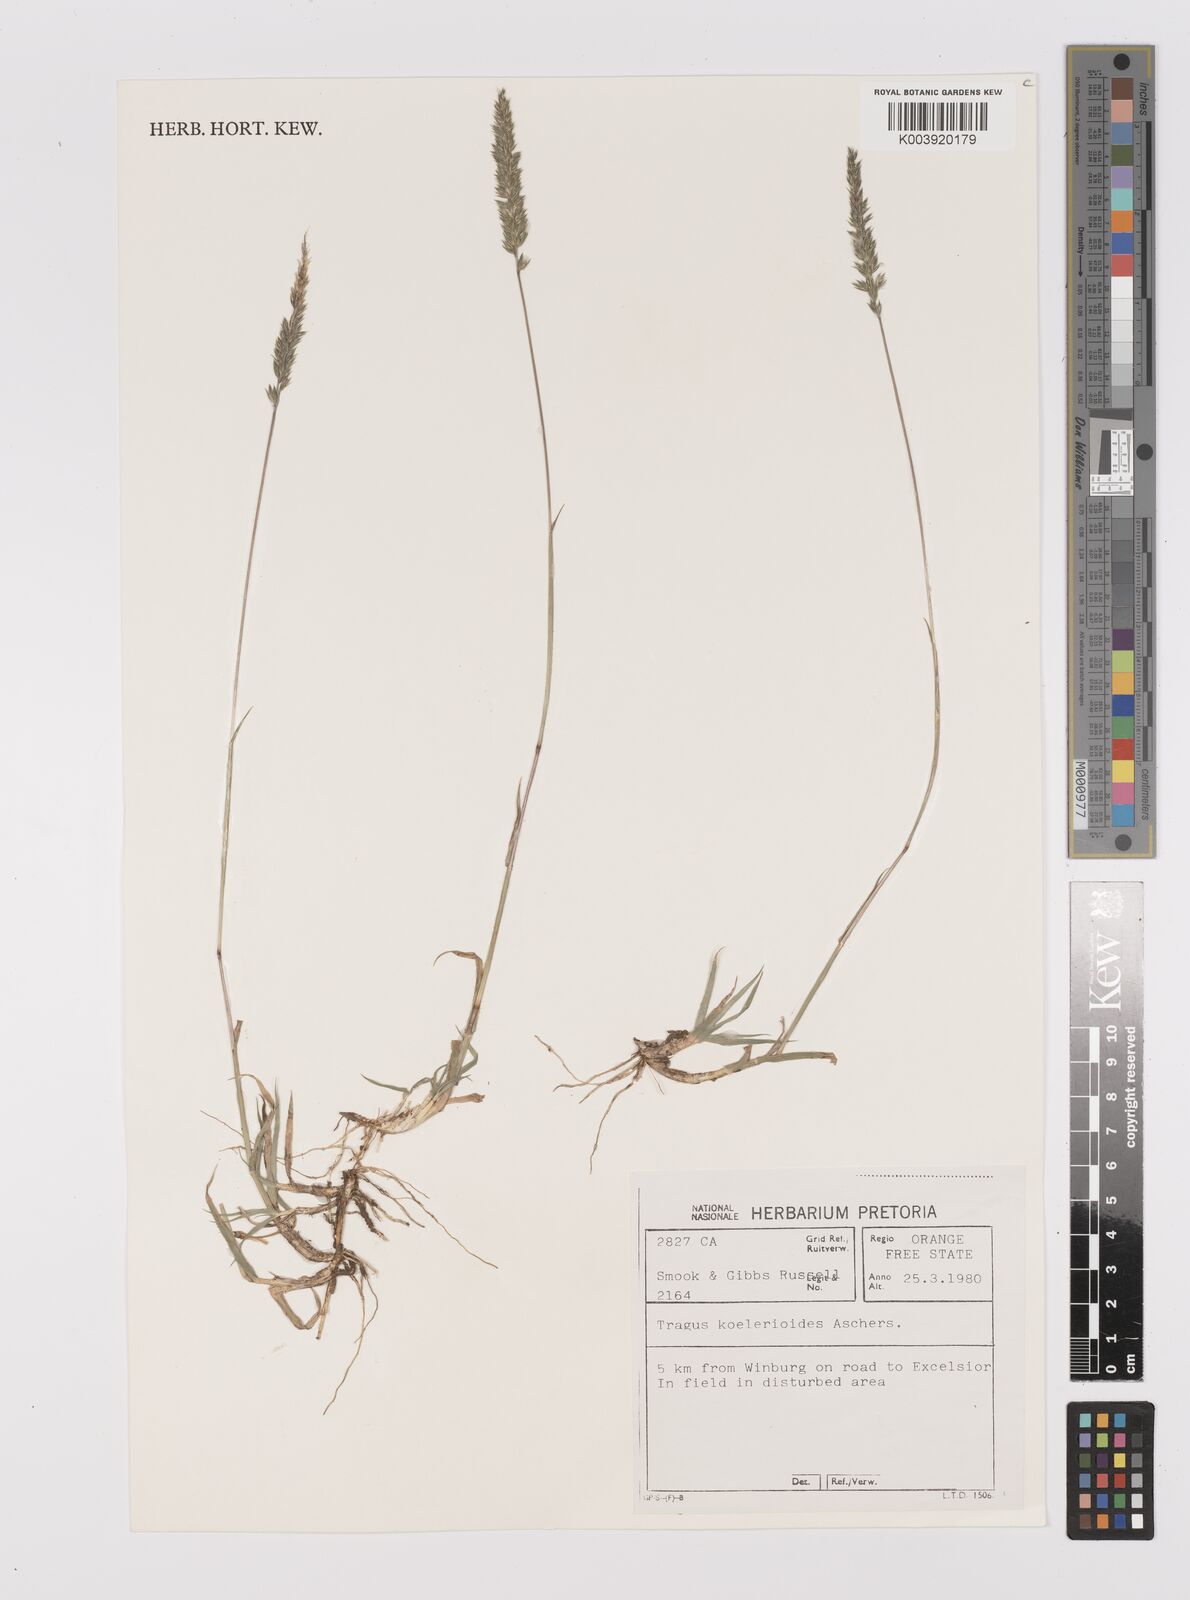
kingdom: Plantae
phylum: Tracheophyta
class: Liliopsida
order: Poales
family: Poaceae
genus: Tragus
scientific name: Tragus koelerioides
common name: Creeping carrot-seed grass
